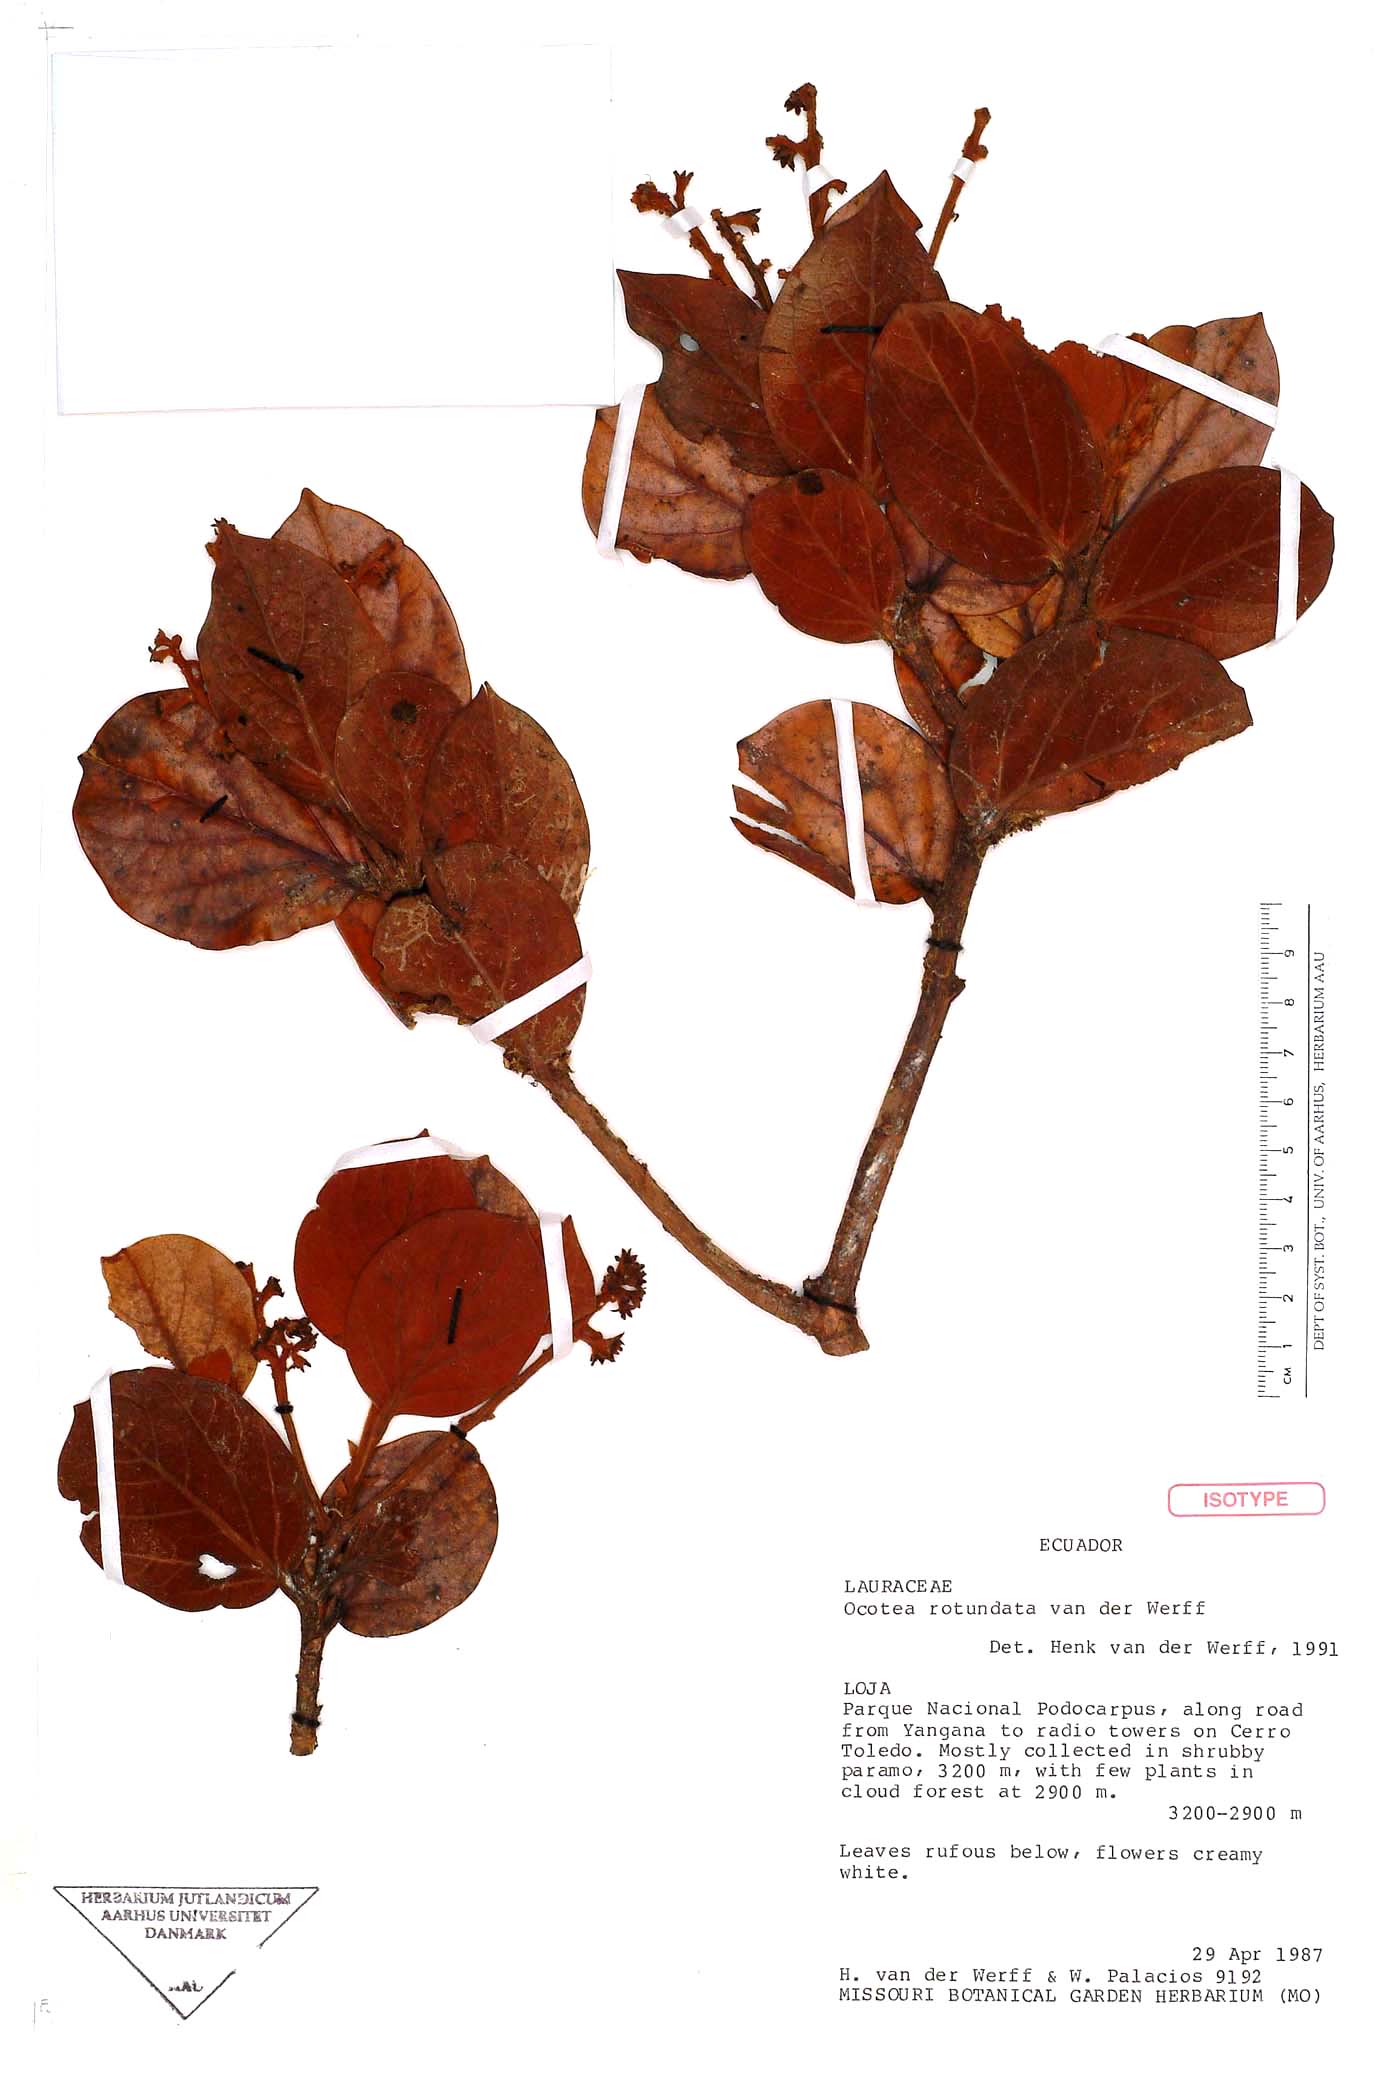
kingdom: Plantae
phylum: Tracheophyta
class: Magnoliopsida
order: Laurales
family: Lauraceae
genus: Ocotea
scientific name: Ocotea rotundata
